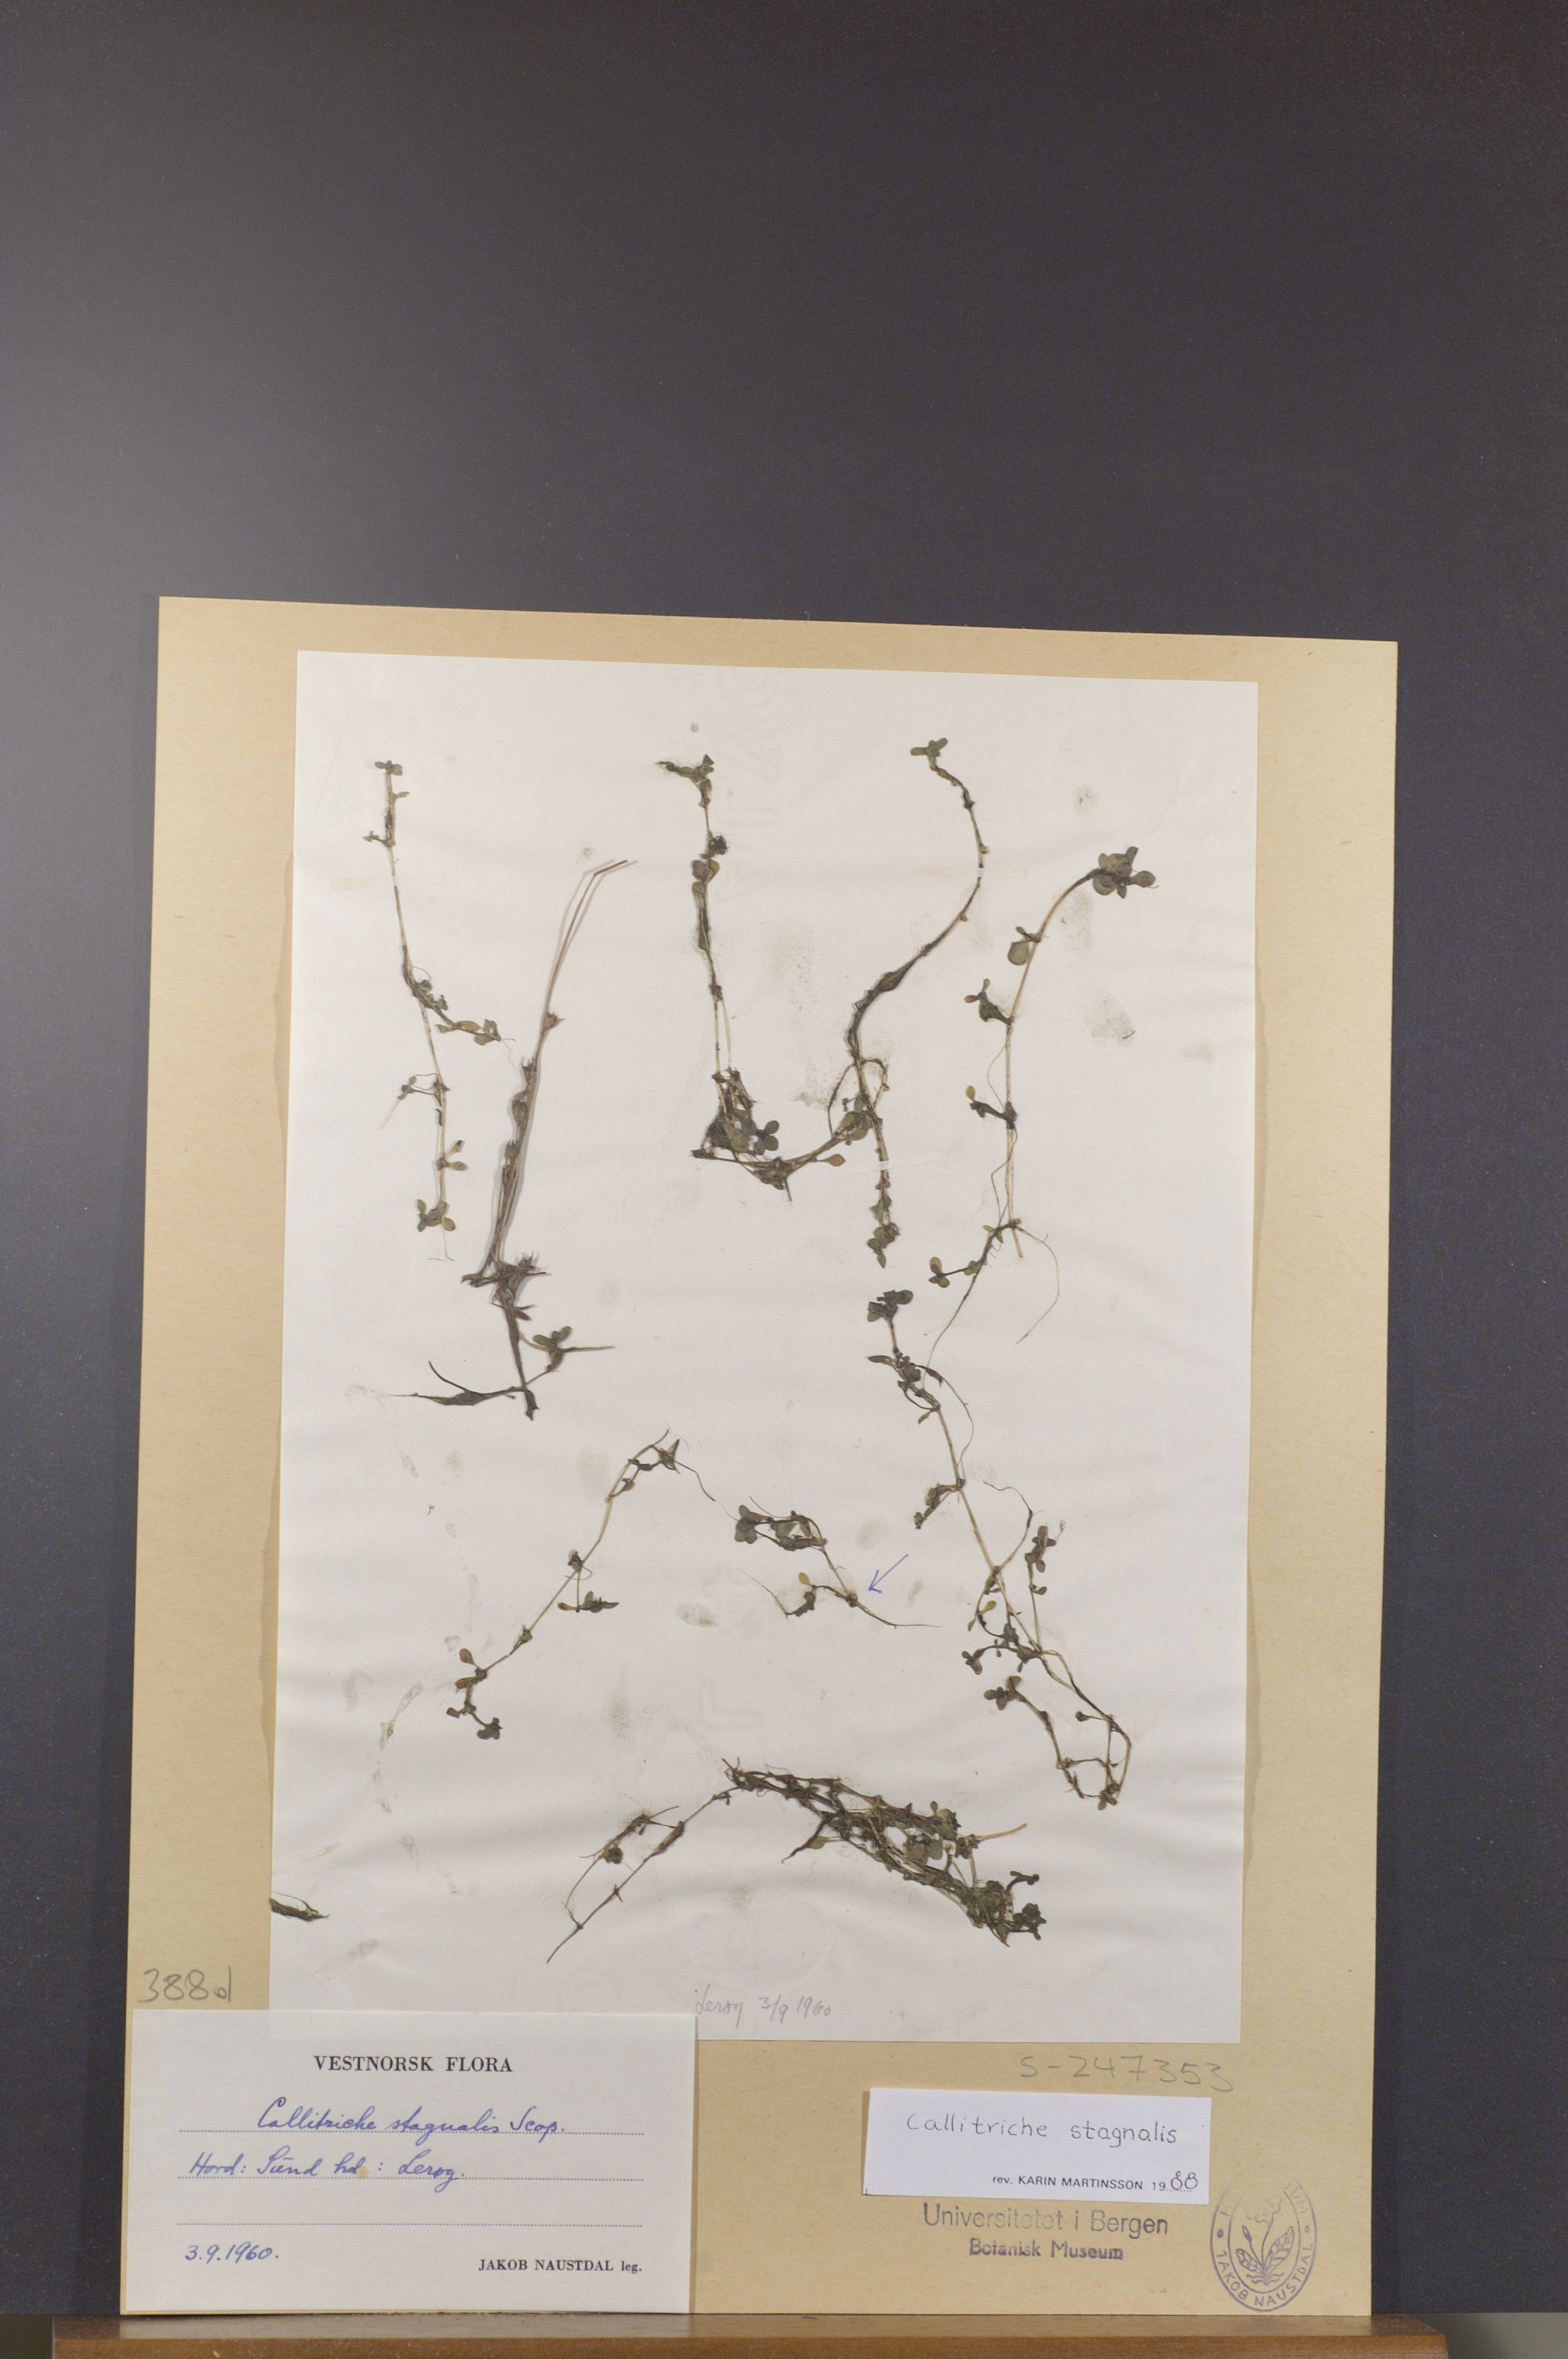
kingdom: Plantae
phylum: Tracheophyta
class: Magnoliopsida
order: Lamiales
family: Plantaginaceae
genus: Callitriche
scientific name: Callitriche stagnalis
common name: Common water-starwort
